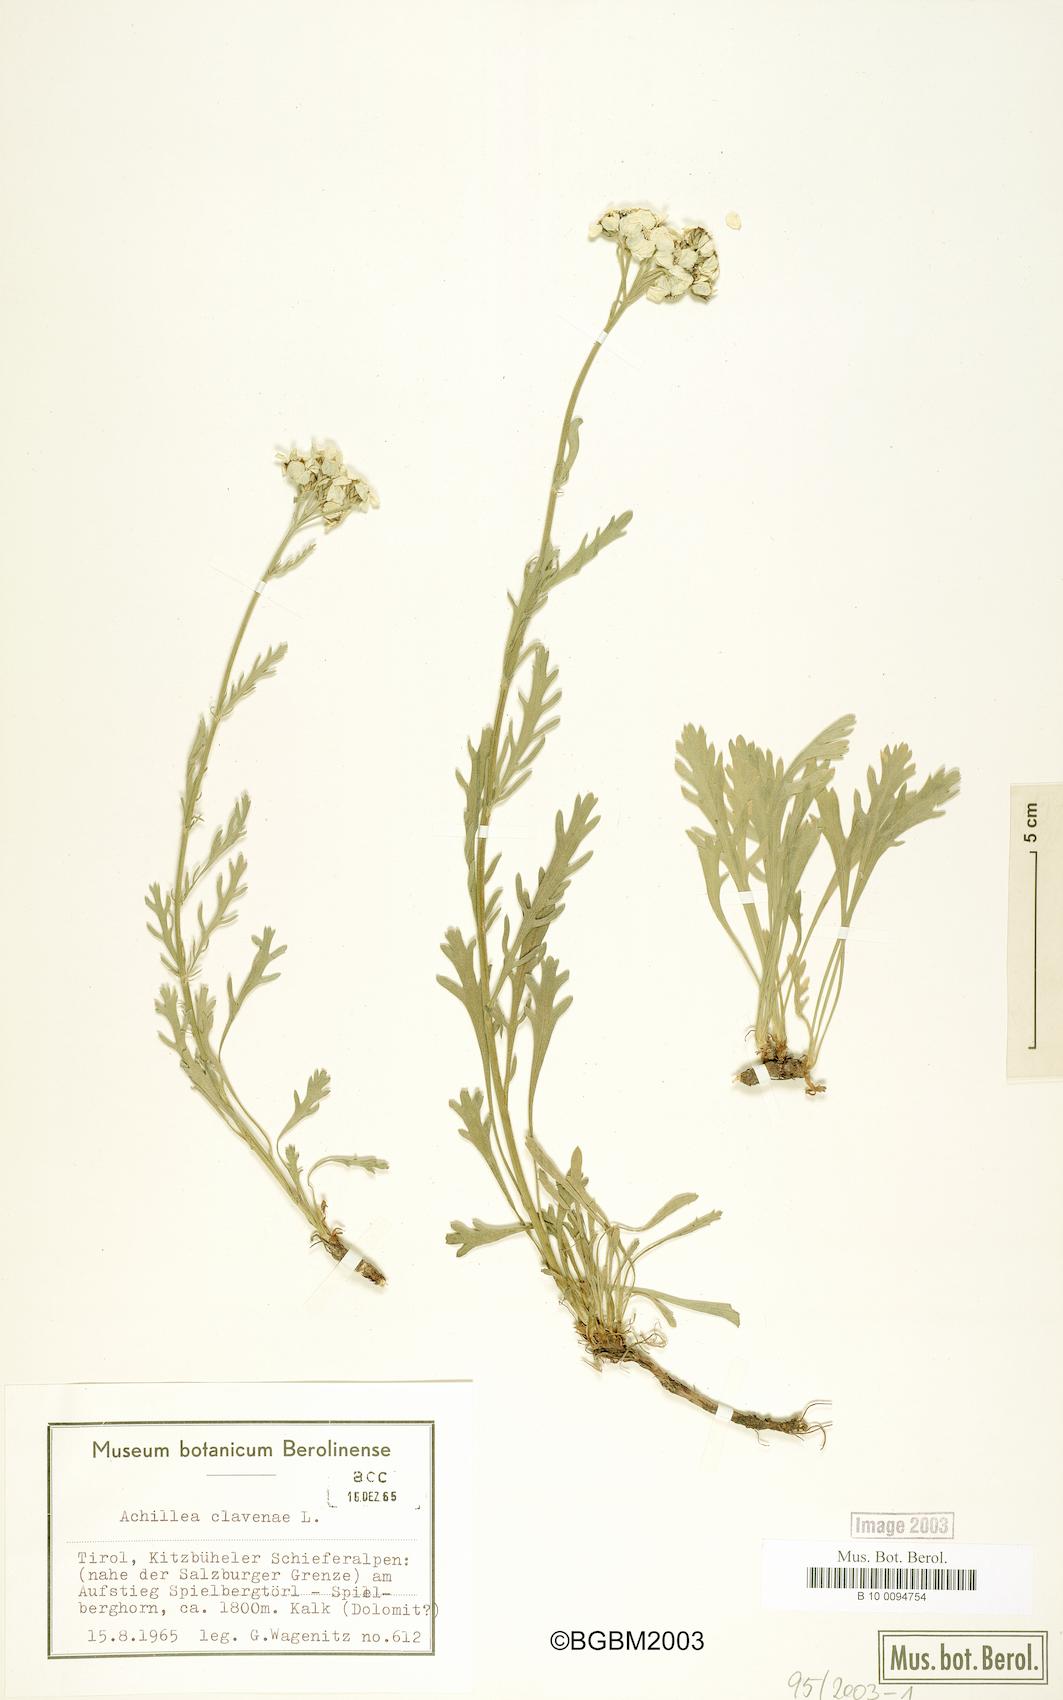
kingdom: Plantae
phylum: Tracheophyta
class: Magnoliopsida
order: Asterales
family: Asteraceae
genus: Achillea
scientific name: Achillea clavennae
